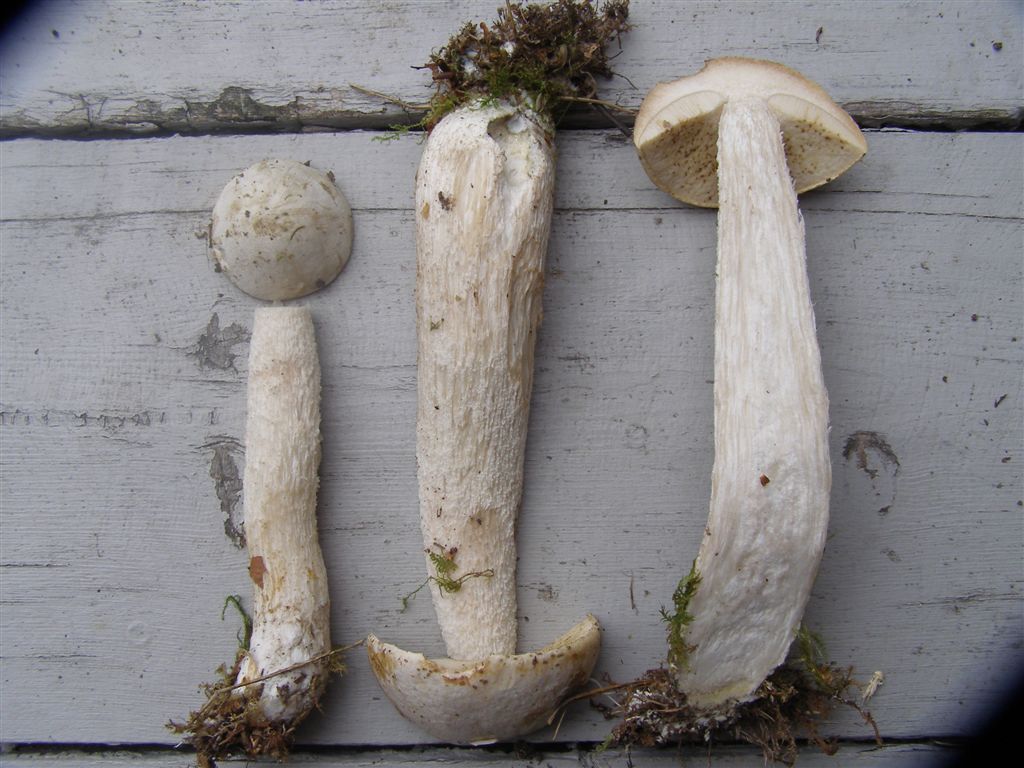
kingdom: Fungi
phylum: Basidiomycota
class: Agaricomycetes
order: Boletales
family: Boletaceae
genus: Leccinum
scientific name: Leccinum scabrum
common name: hvid skælrørhat
